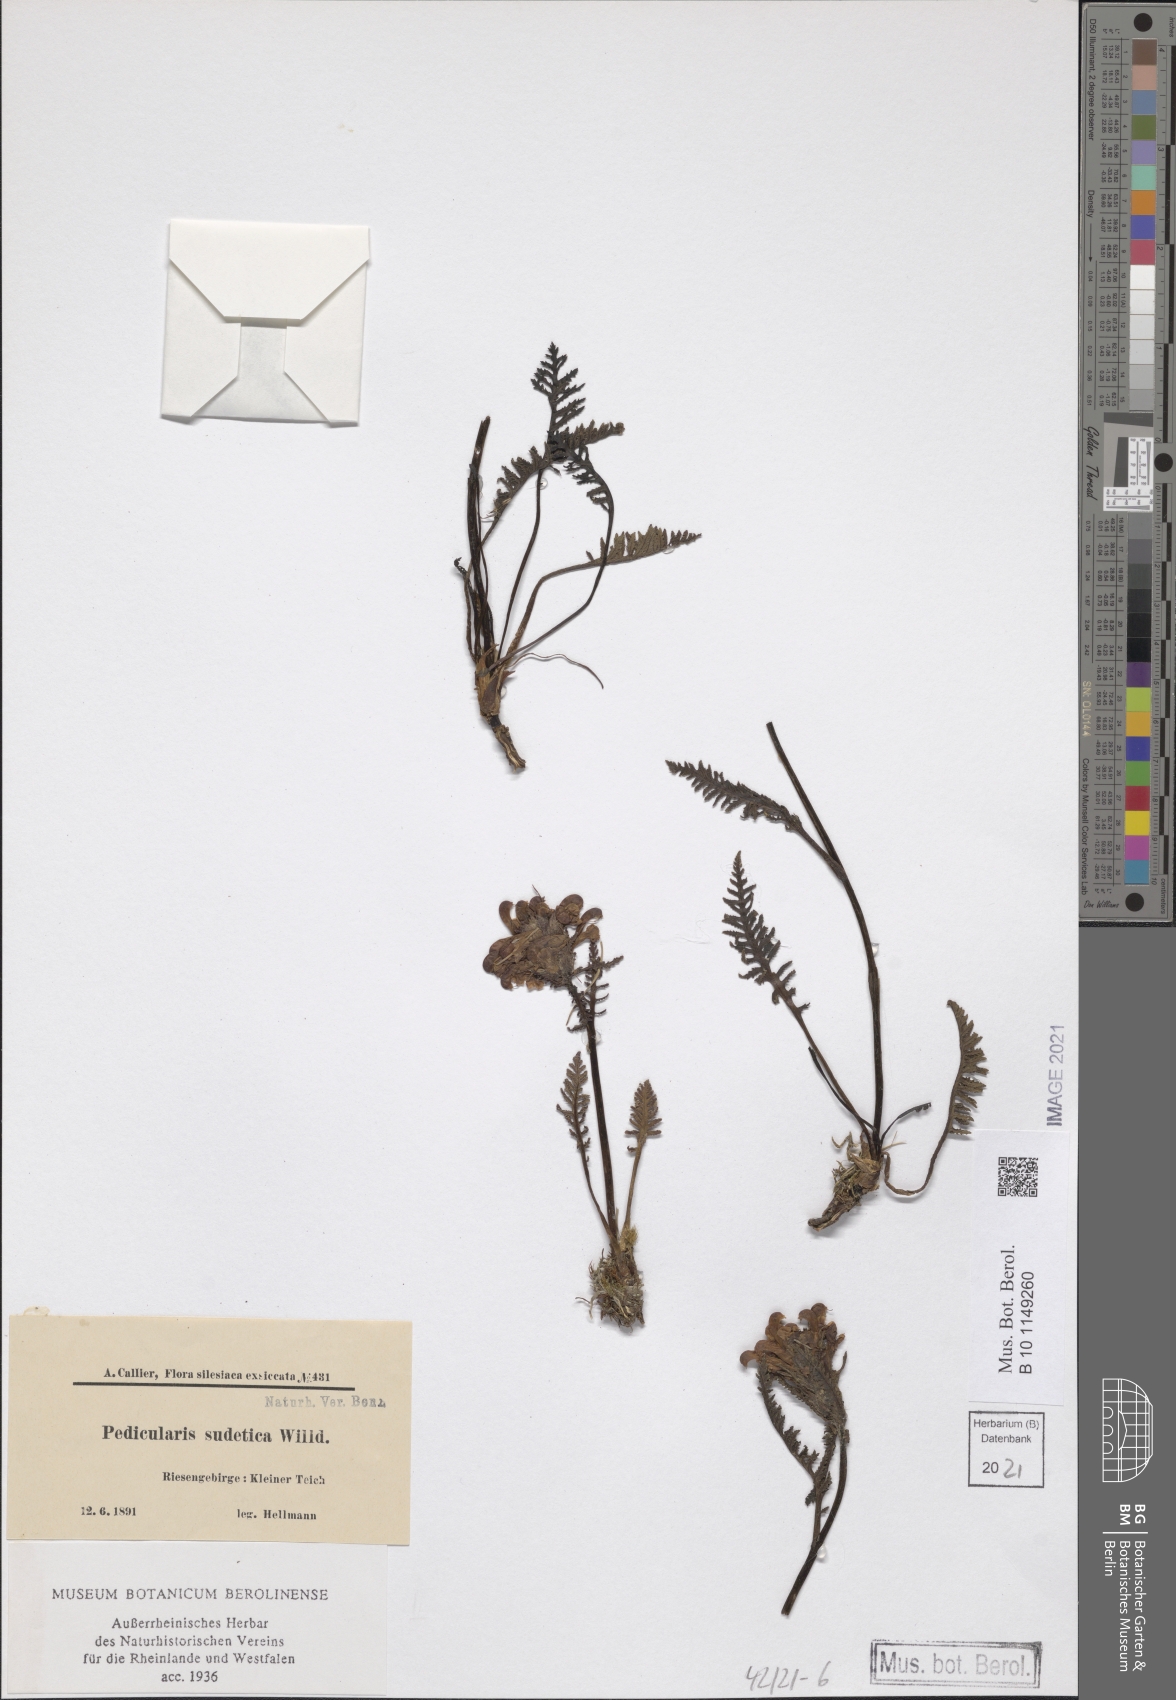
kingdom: Plantae
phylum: Tracheophyta
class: Magnoliopsida
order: Lamiales
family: Orobanchaceae
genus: Pedicularis
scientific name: Pedicularis sudetica
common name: Sudeten lousewort
